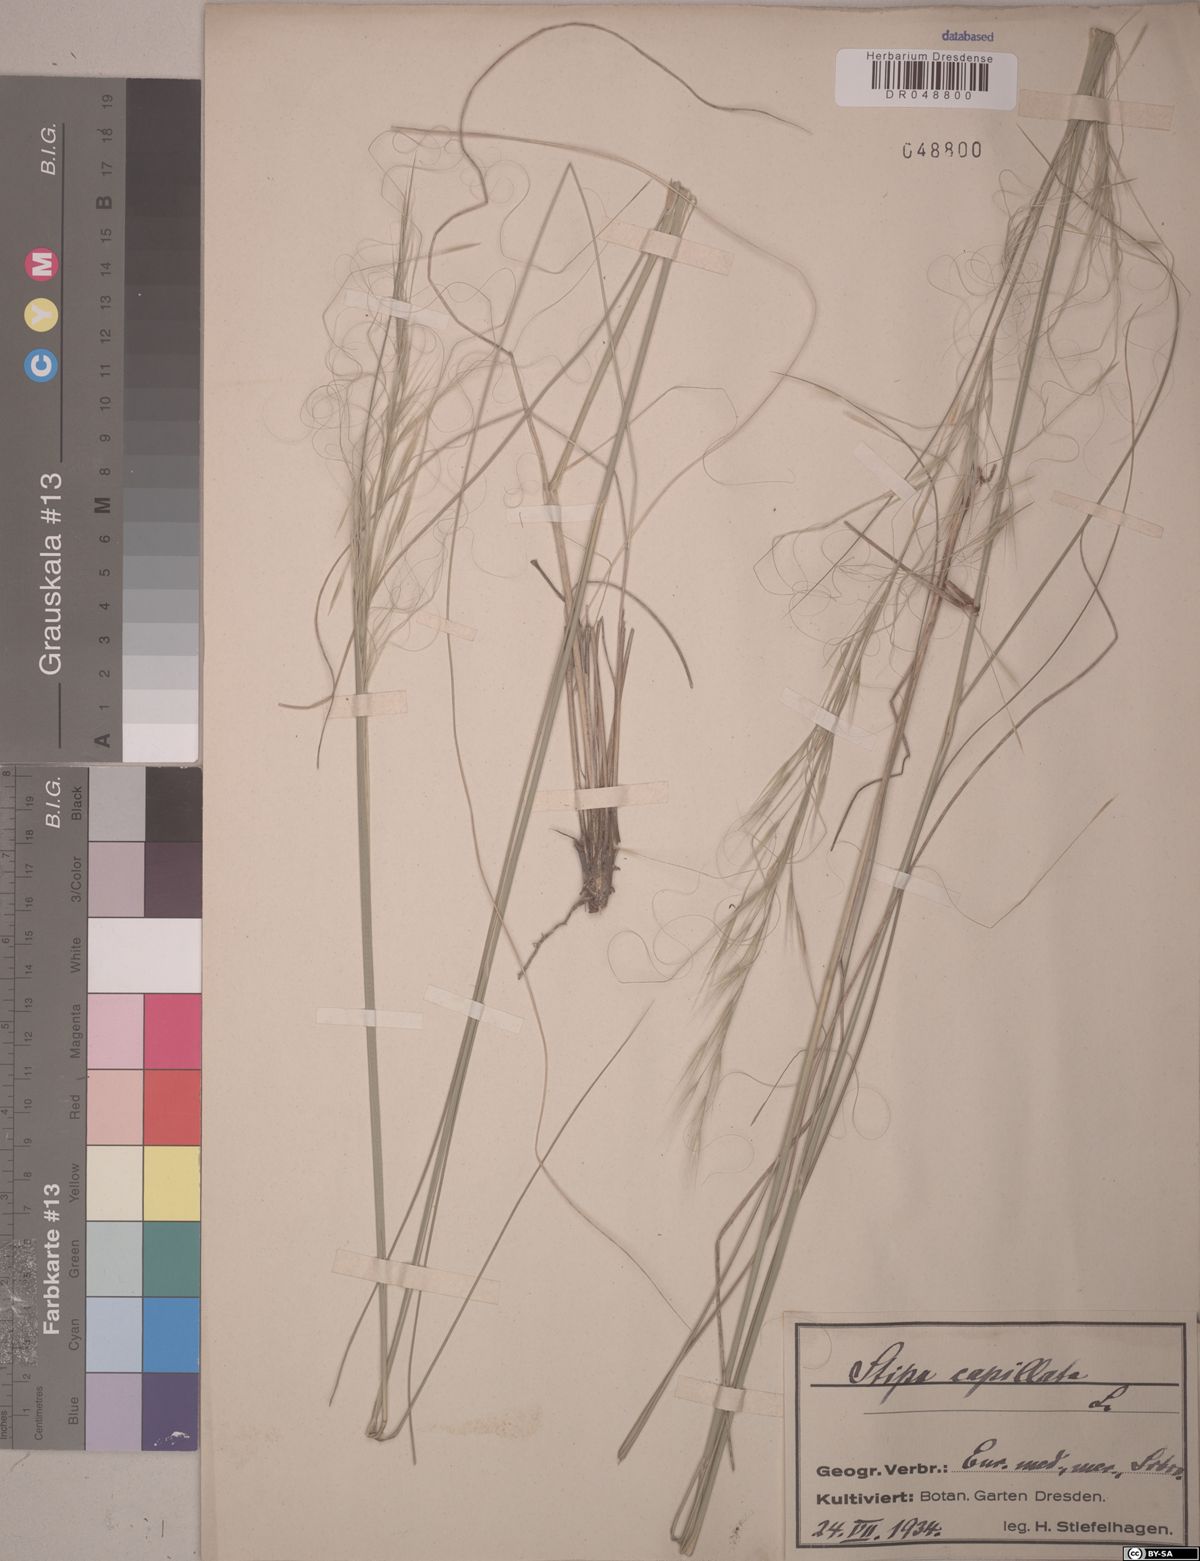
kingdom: Plantae
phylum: Tracheophyta
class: Liliopsida
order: Poales
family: Poaceae
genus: Stipa
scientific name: Stipa capillata
